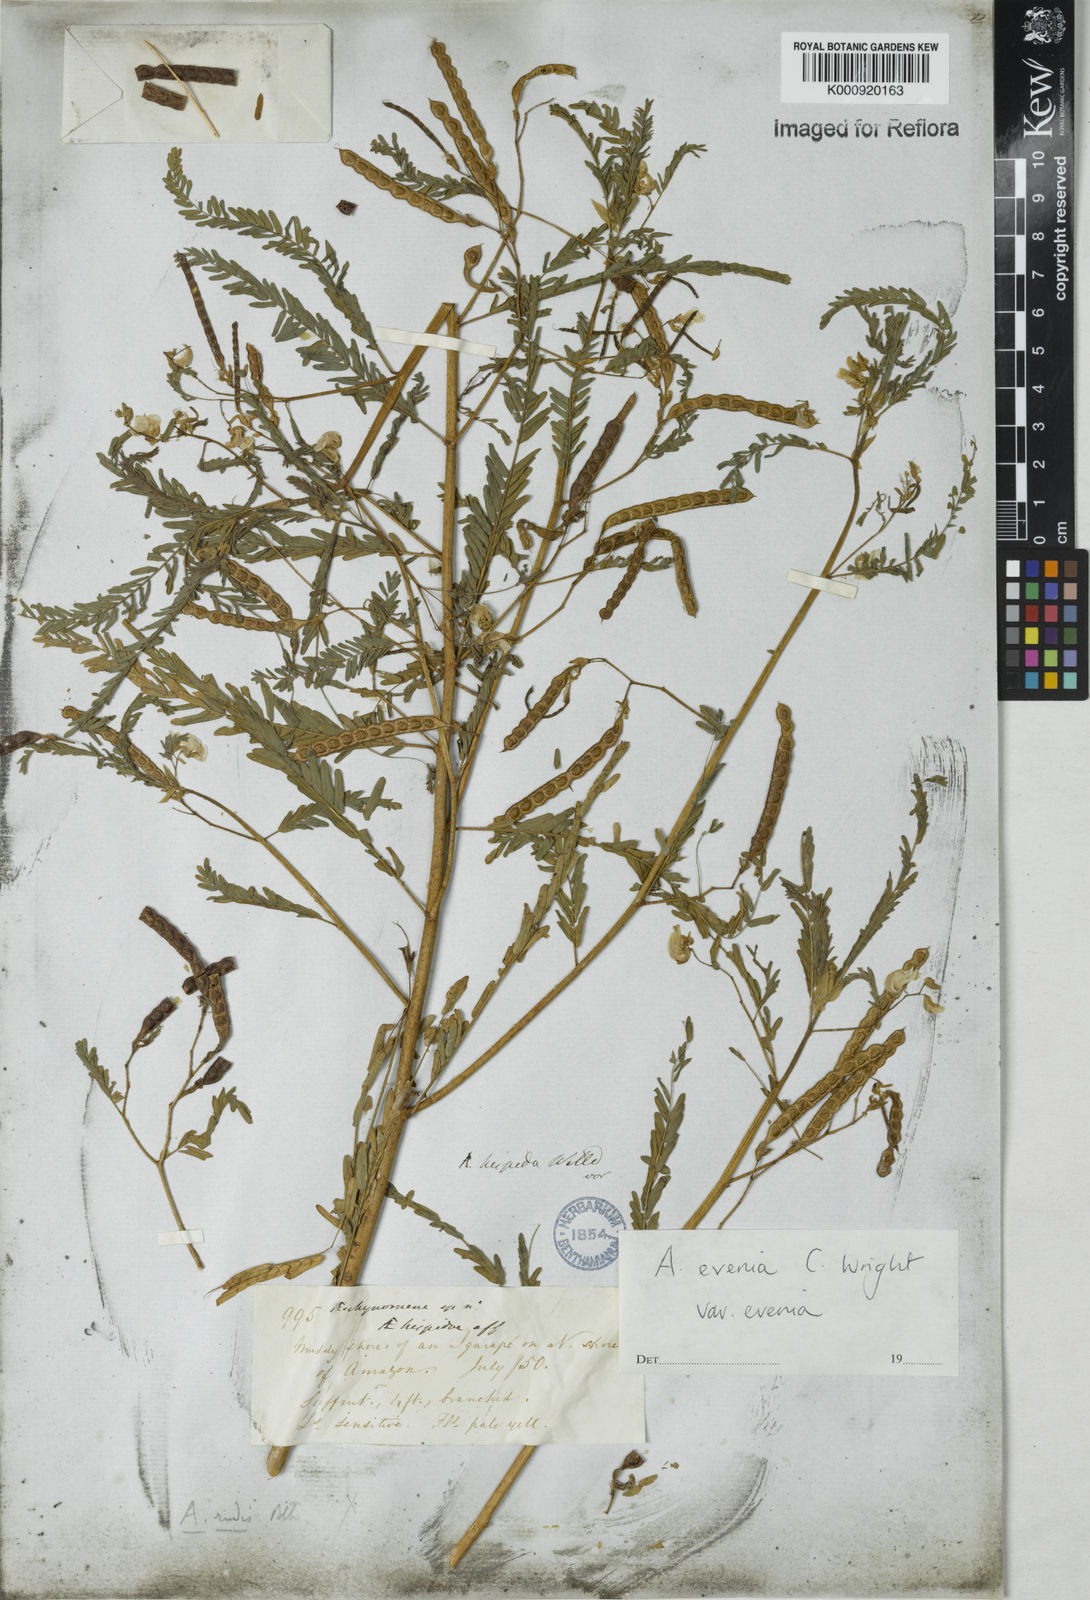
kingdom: Plantae
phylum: Tracheophyta
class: Magnoliopsida
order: Fabales
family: Fabaceae
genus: Aeschynomene
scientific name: Aeschynomene evenia
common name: Shrubby jointvetch
